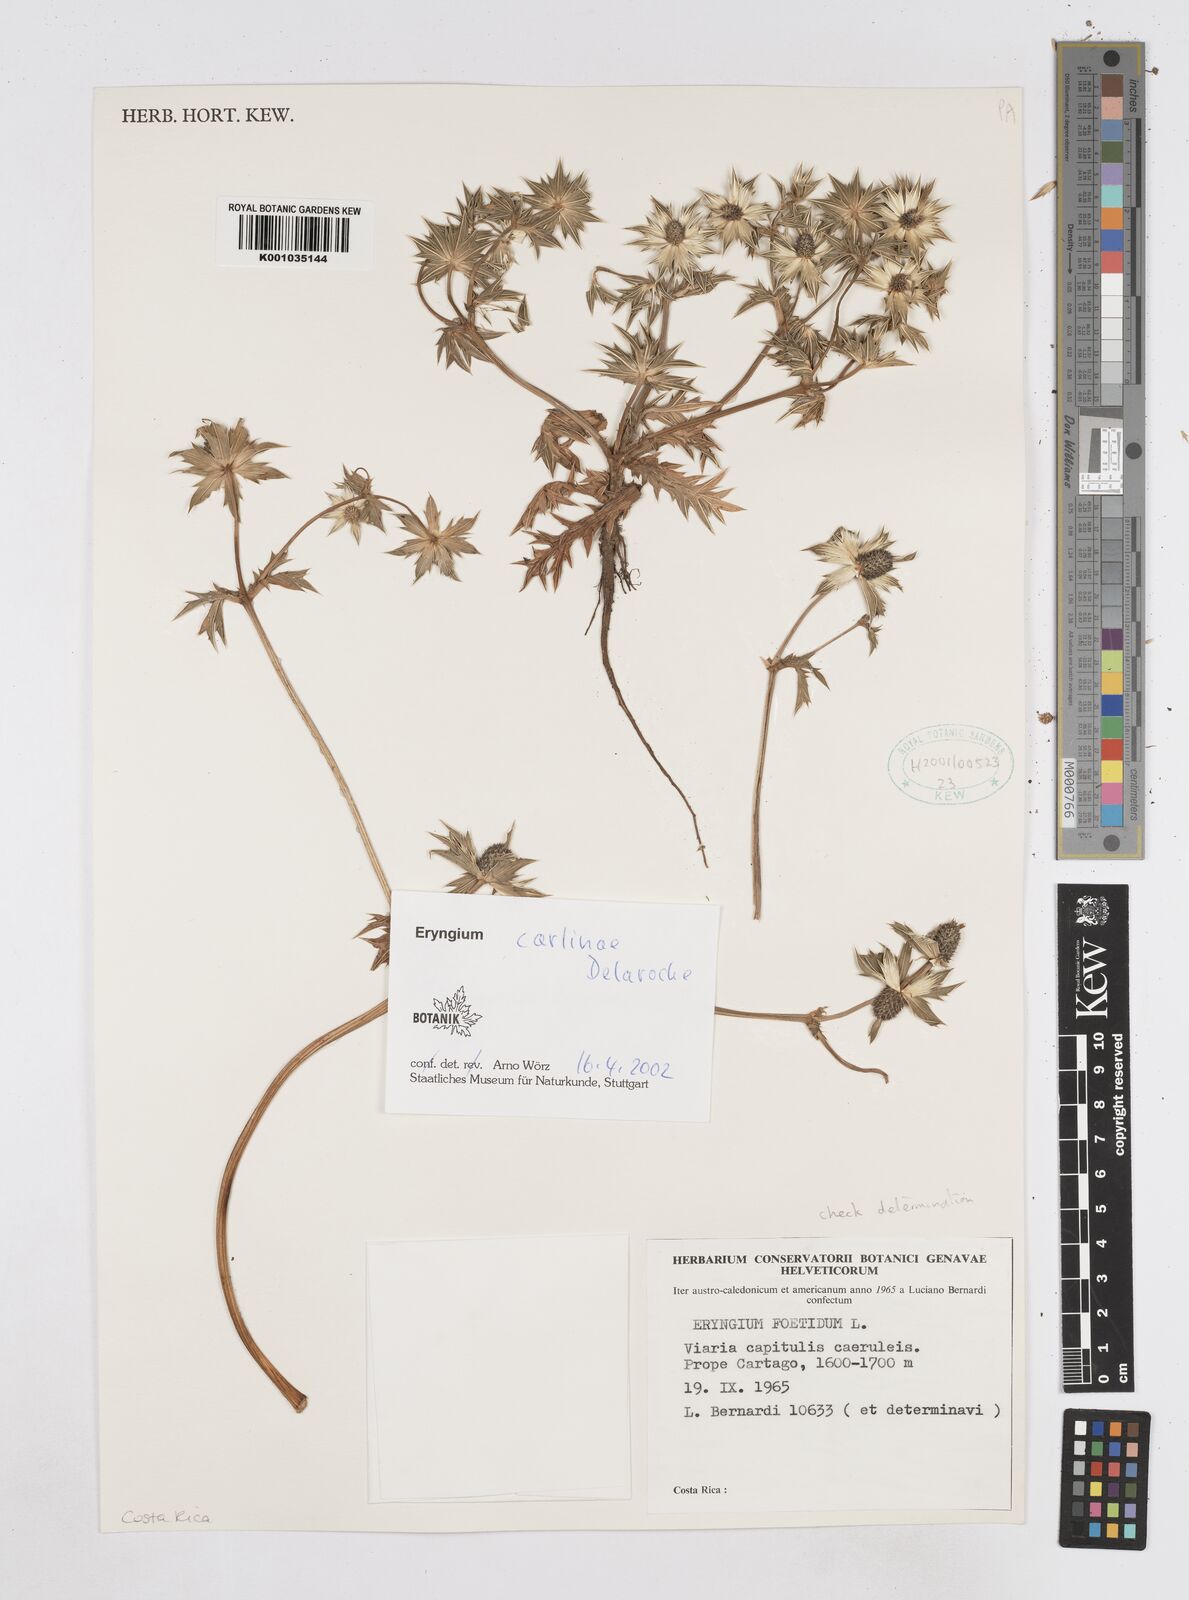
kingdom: Plantae
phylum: Tracheophyta
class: Magnoliopsida
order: Apiales
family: Apiaceae
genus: Eryngium
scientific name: Eryngium carlinae
